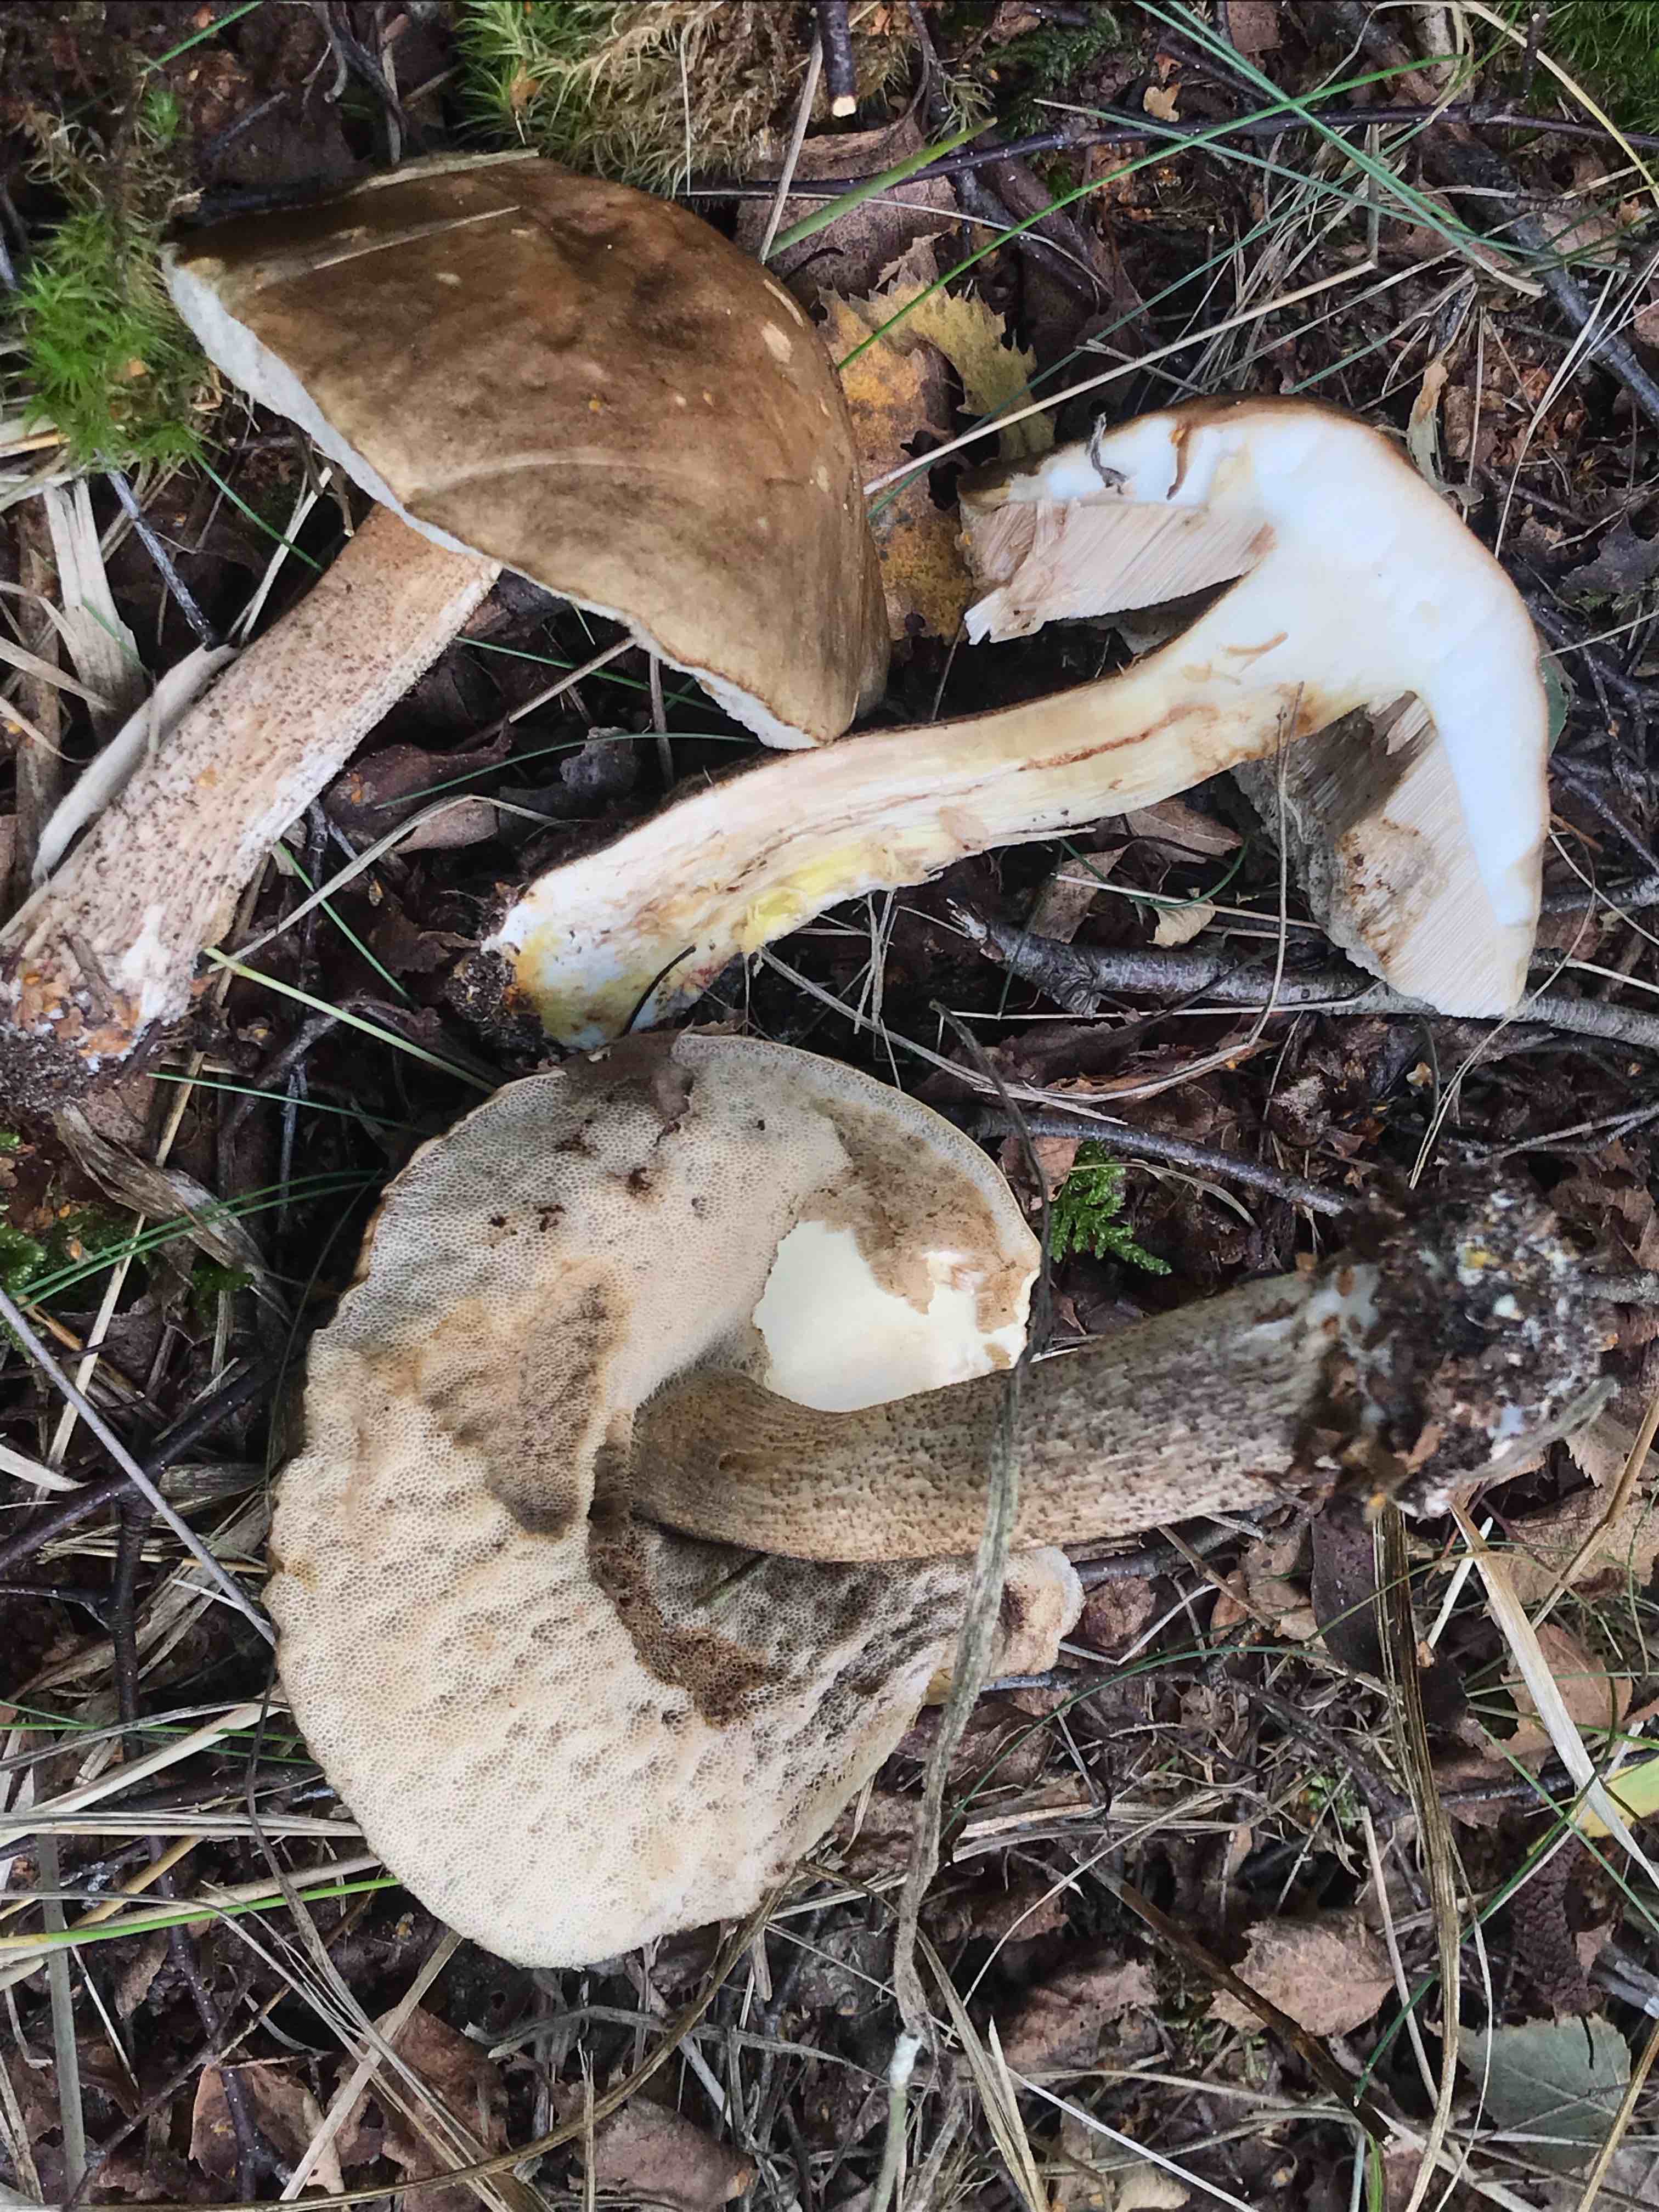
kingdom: Fungi
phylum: Basidiomycota
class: Agaricomycetes
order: Boletales
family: Boletaceae
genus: Leccinum
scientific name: Leccinum scabrum
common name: brun skælrørhat
